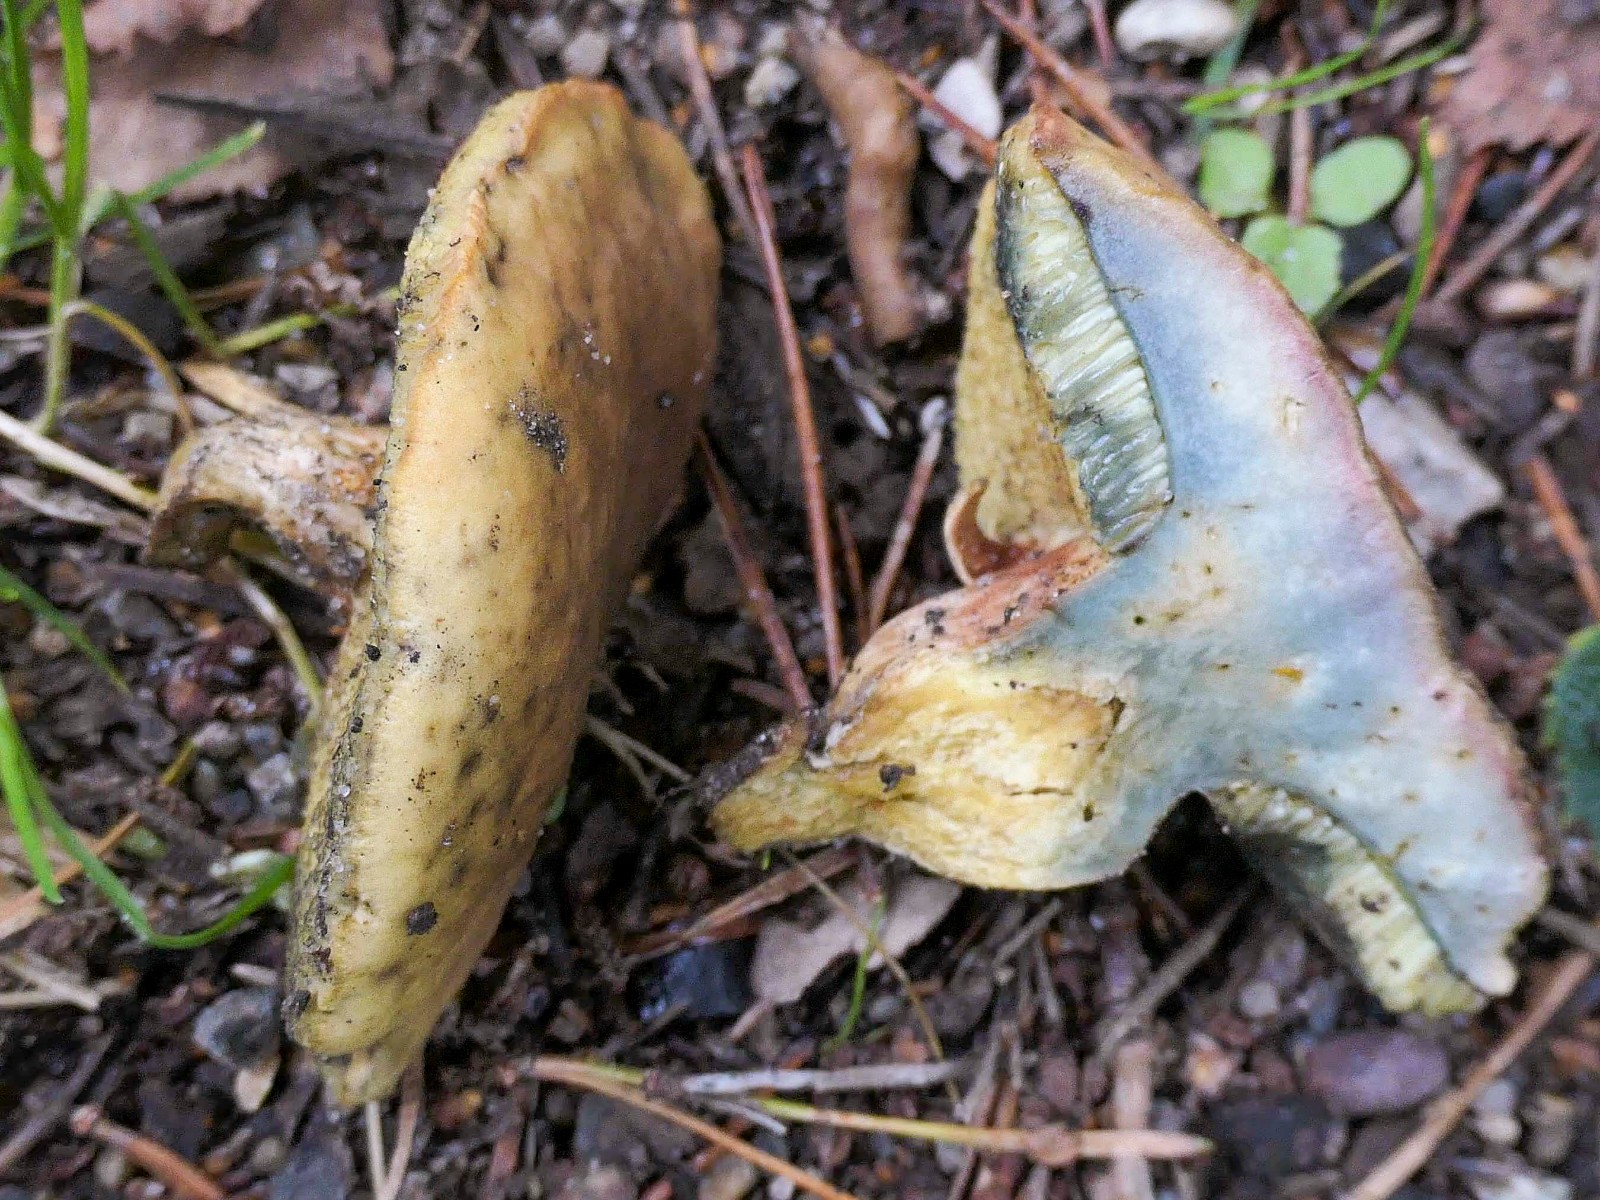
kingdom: Fungi
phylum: Basidiomycota
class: Agaricomycetes
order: Boletales
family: Boletaceae
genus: Hortiboletus
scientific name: Hortiboletus bubalinus
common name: aurora-rørhat
